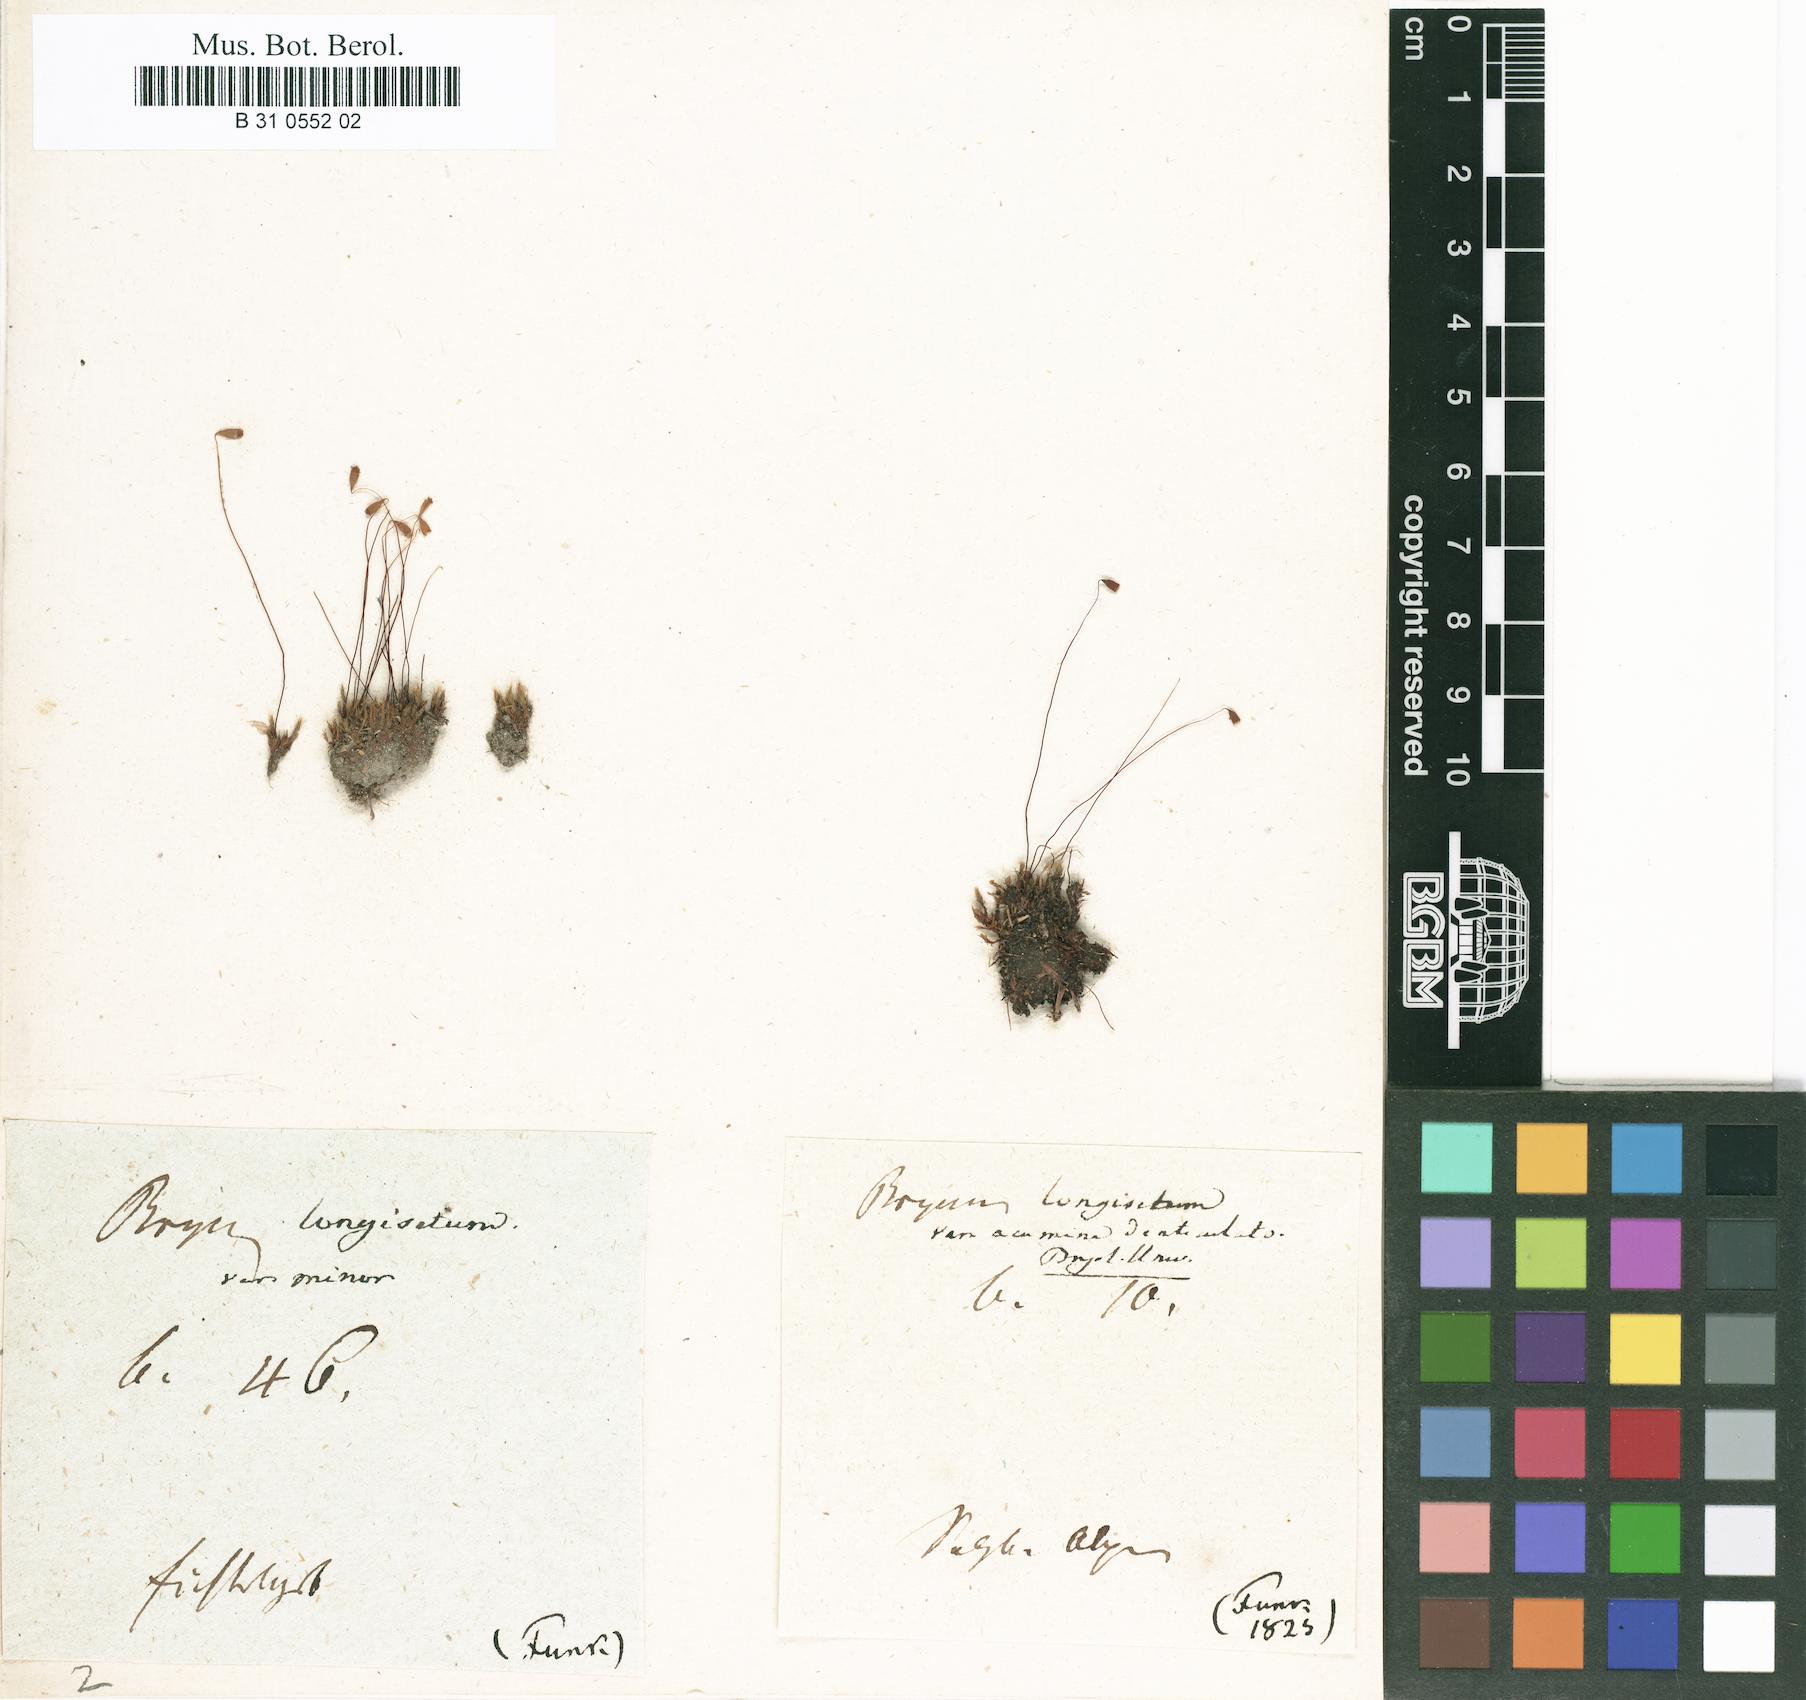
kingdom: Plantae
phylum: Bryophyta
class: Bryopsida
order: Bryales
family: Bryaceae
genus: Ptychostomum
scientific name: Ptychostomum longisetum
